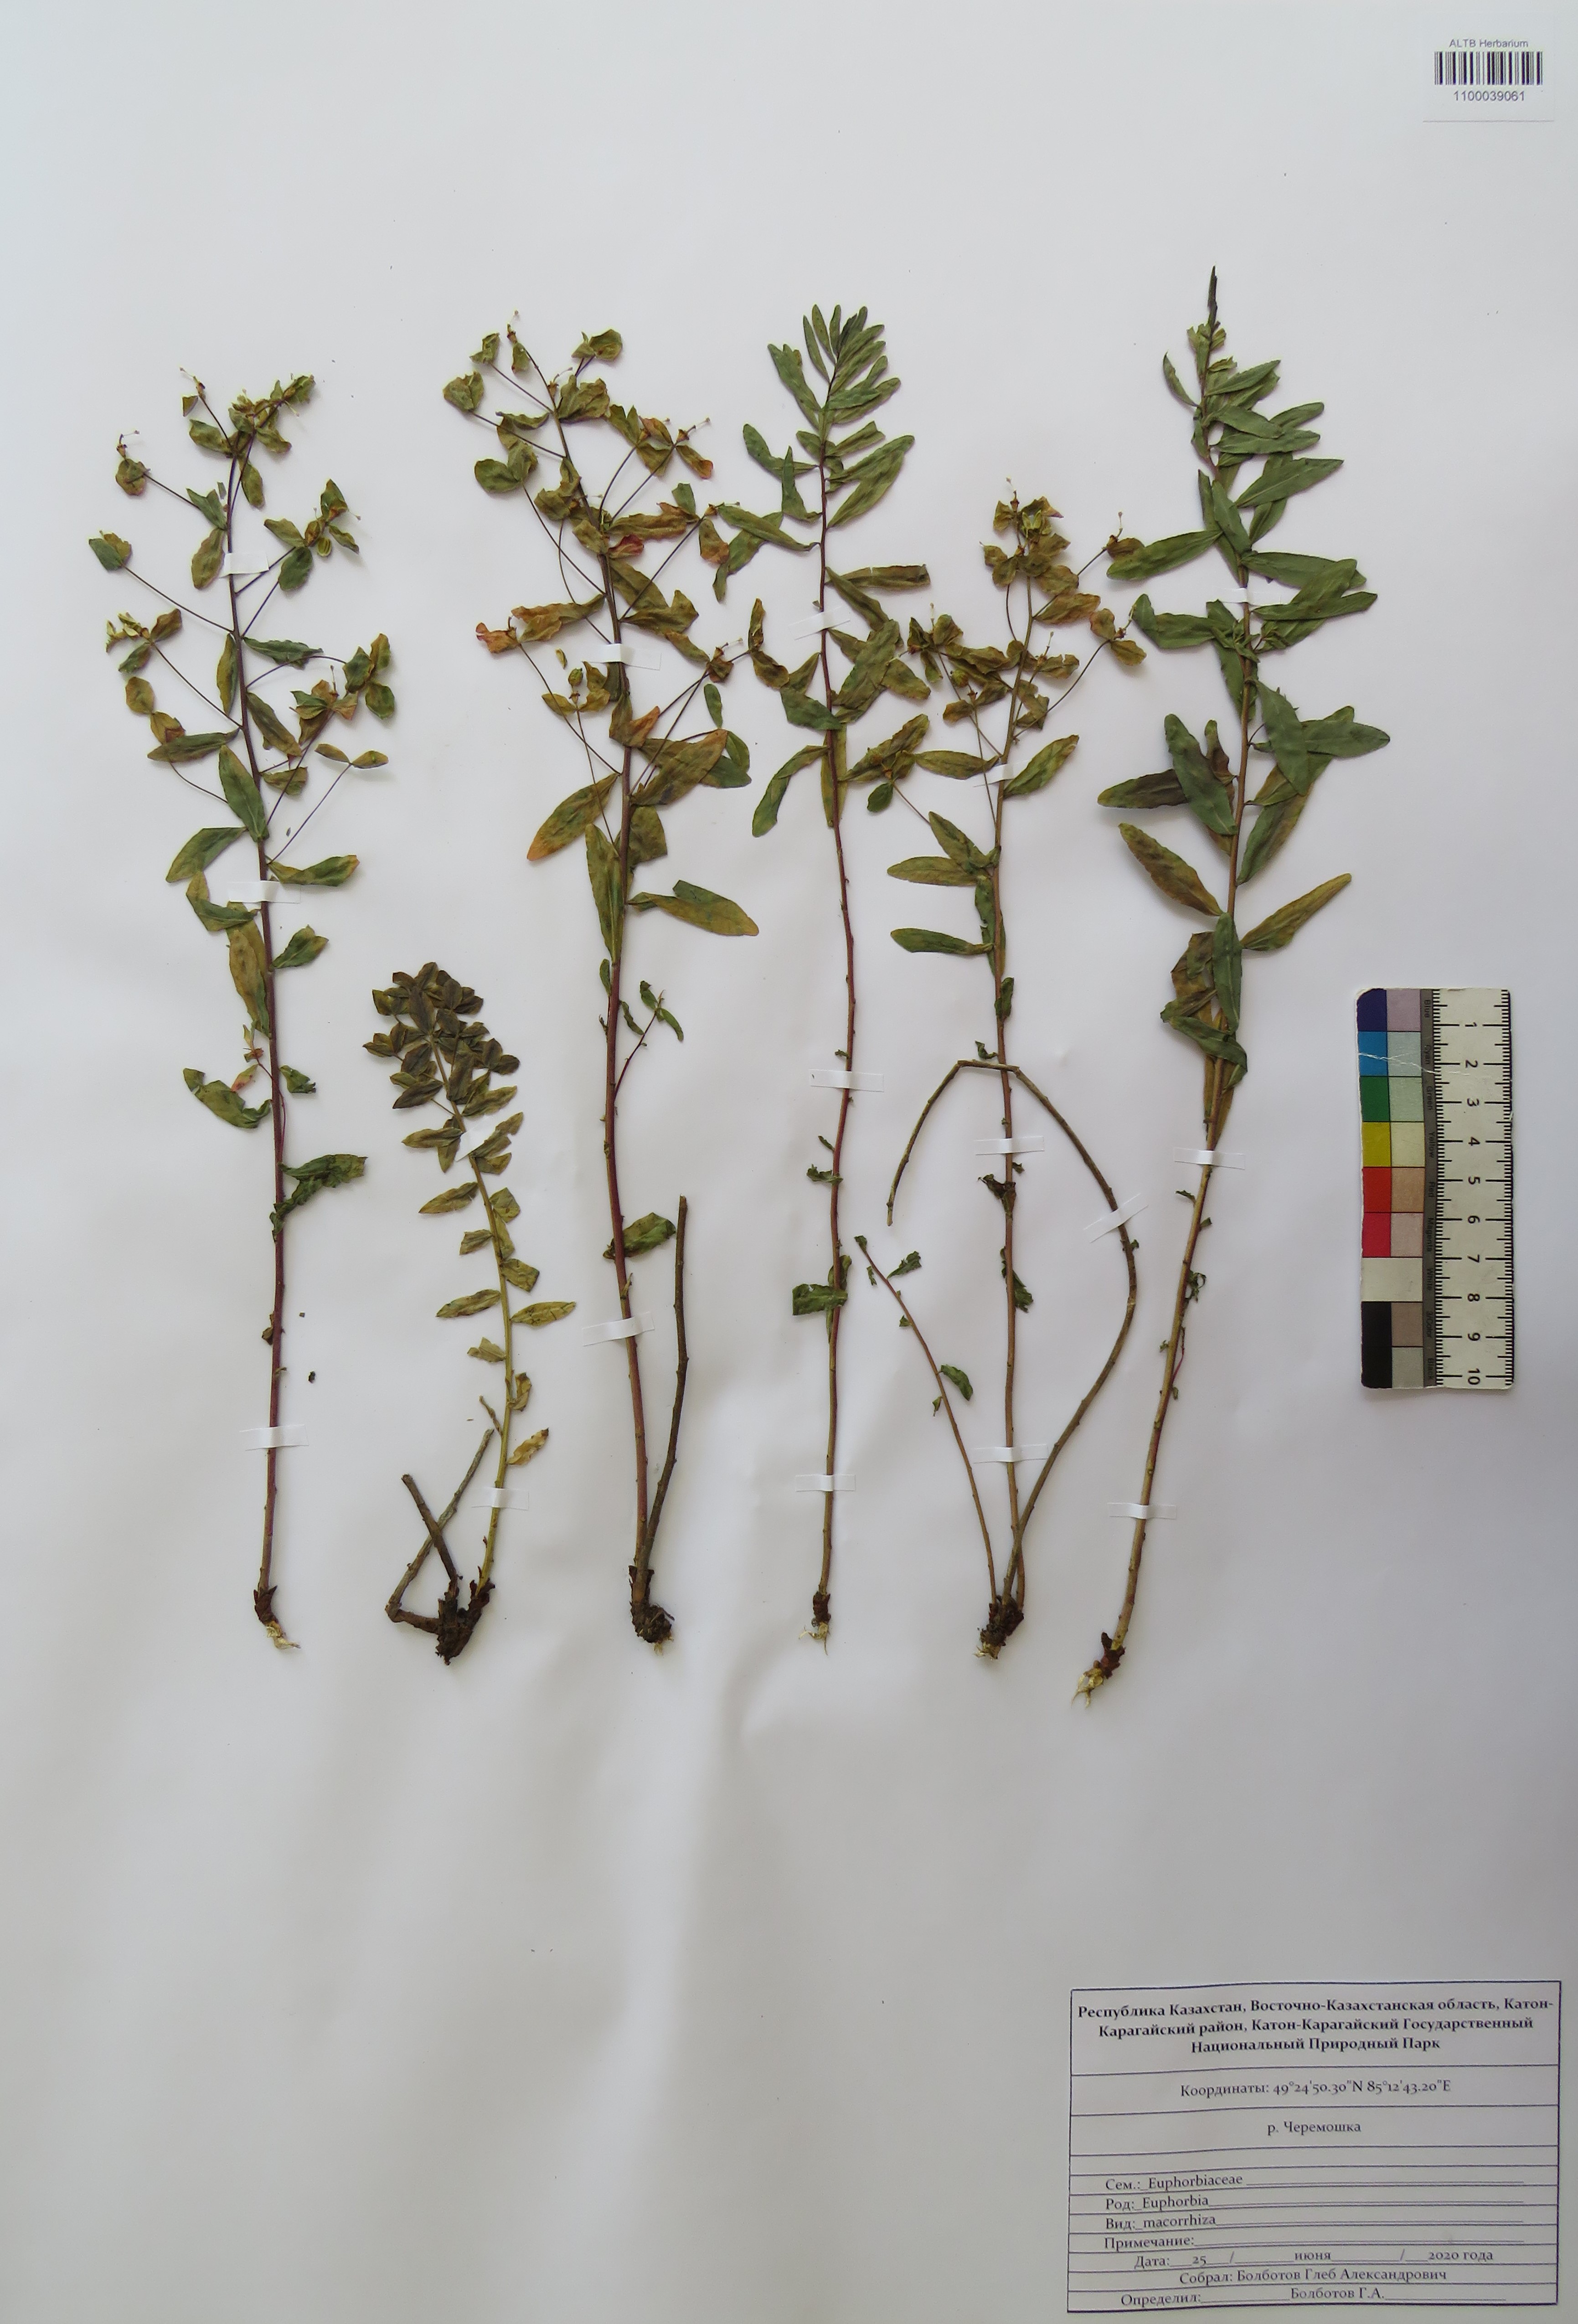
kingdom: Plantae
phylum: Tracheophyta
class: Magnoliopsida
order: Malpighiales
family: Euphorbiaceae
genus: Euphorbia
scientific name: Euphorbia macrorhiza
